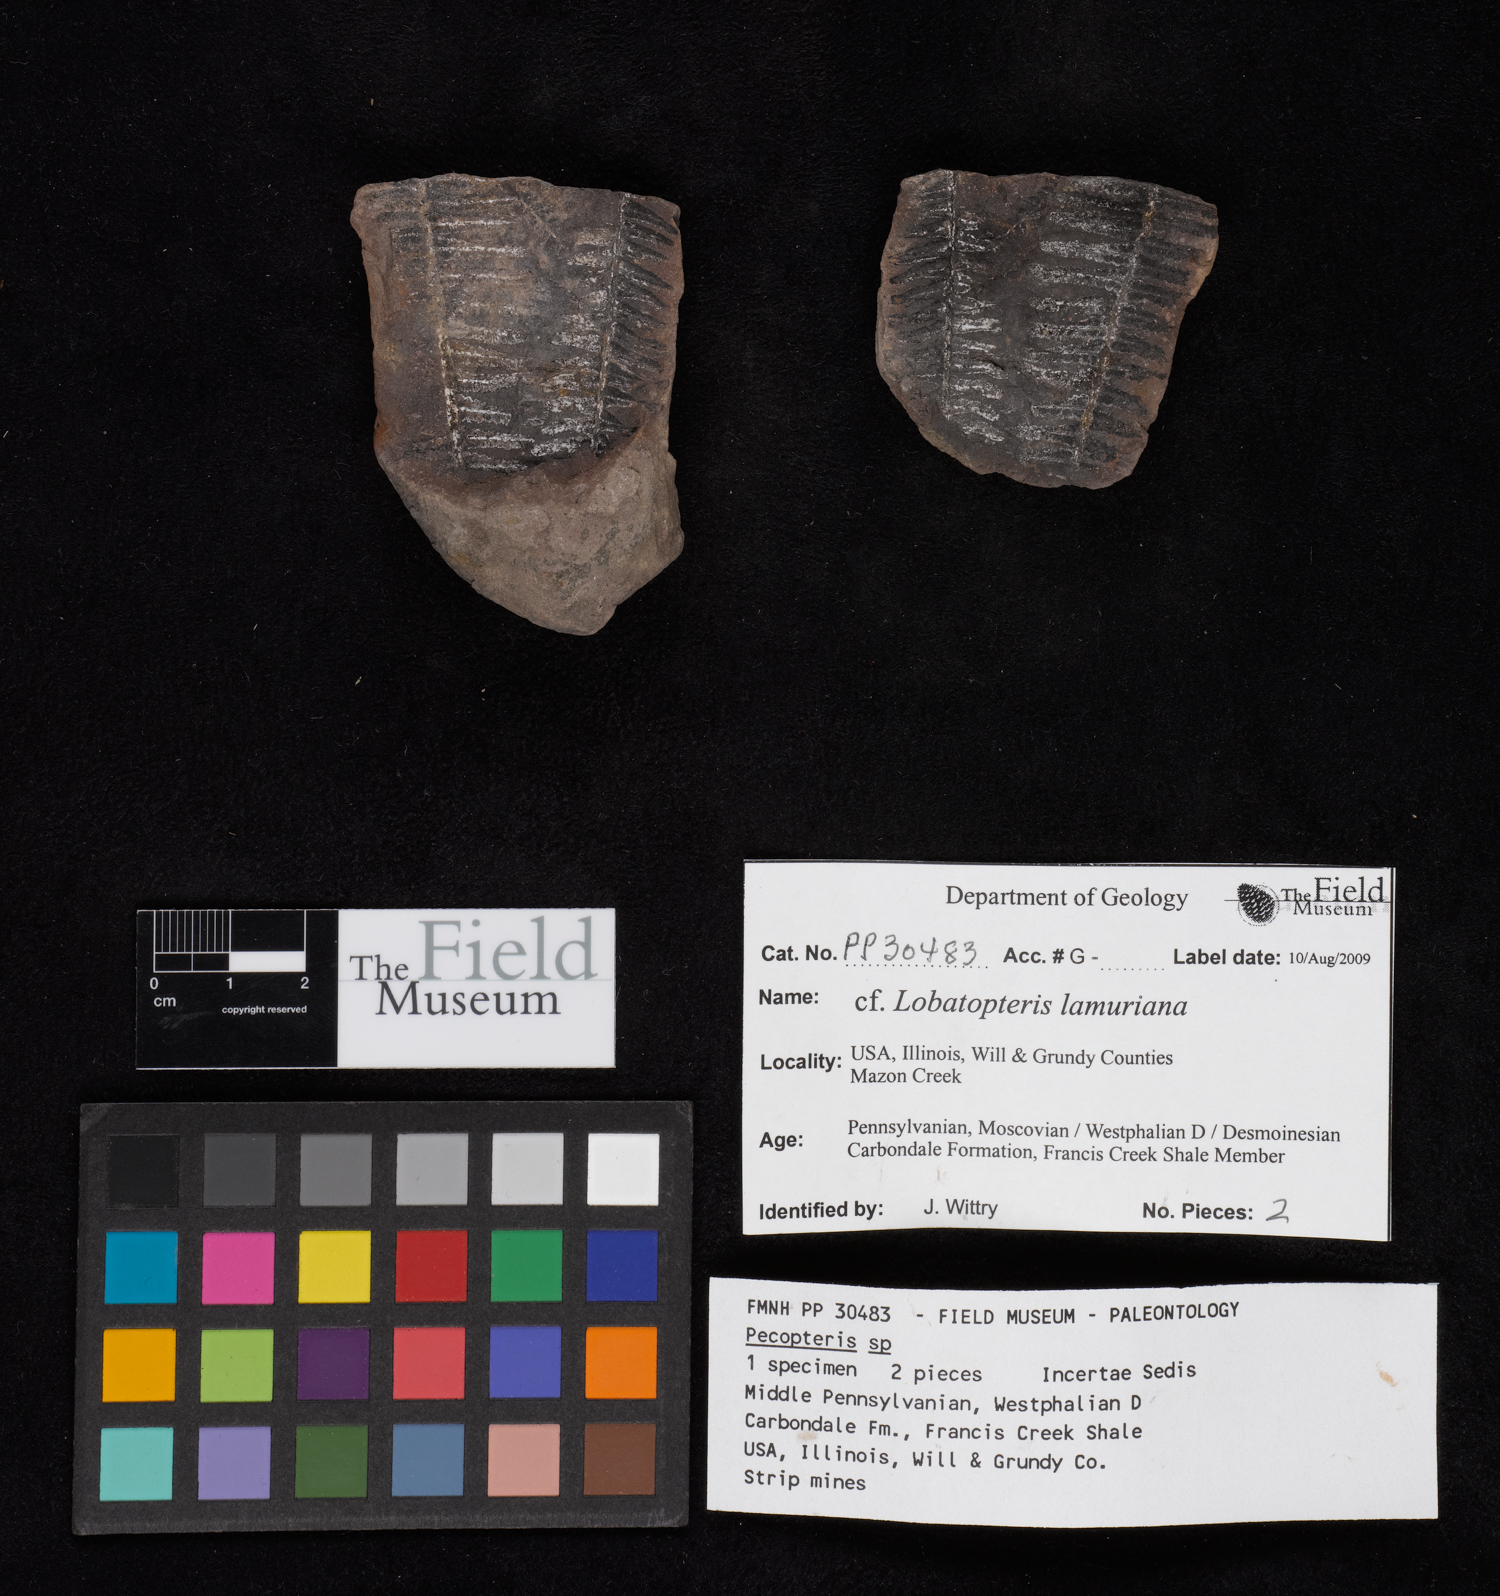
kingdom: Plantae
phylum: Tracheophyta
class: Polypodiopsida
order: Marattiales
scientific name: Marattiales
